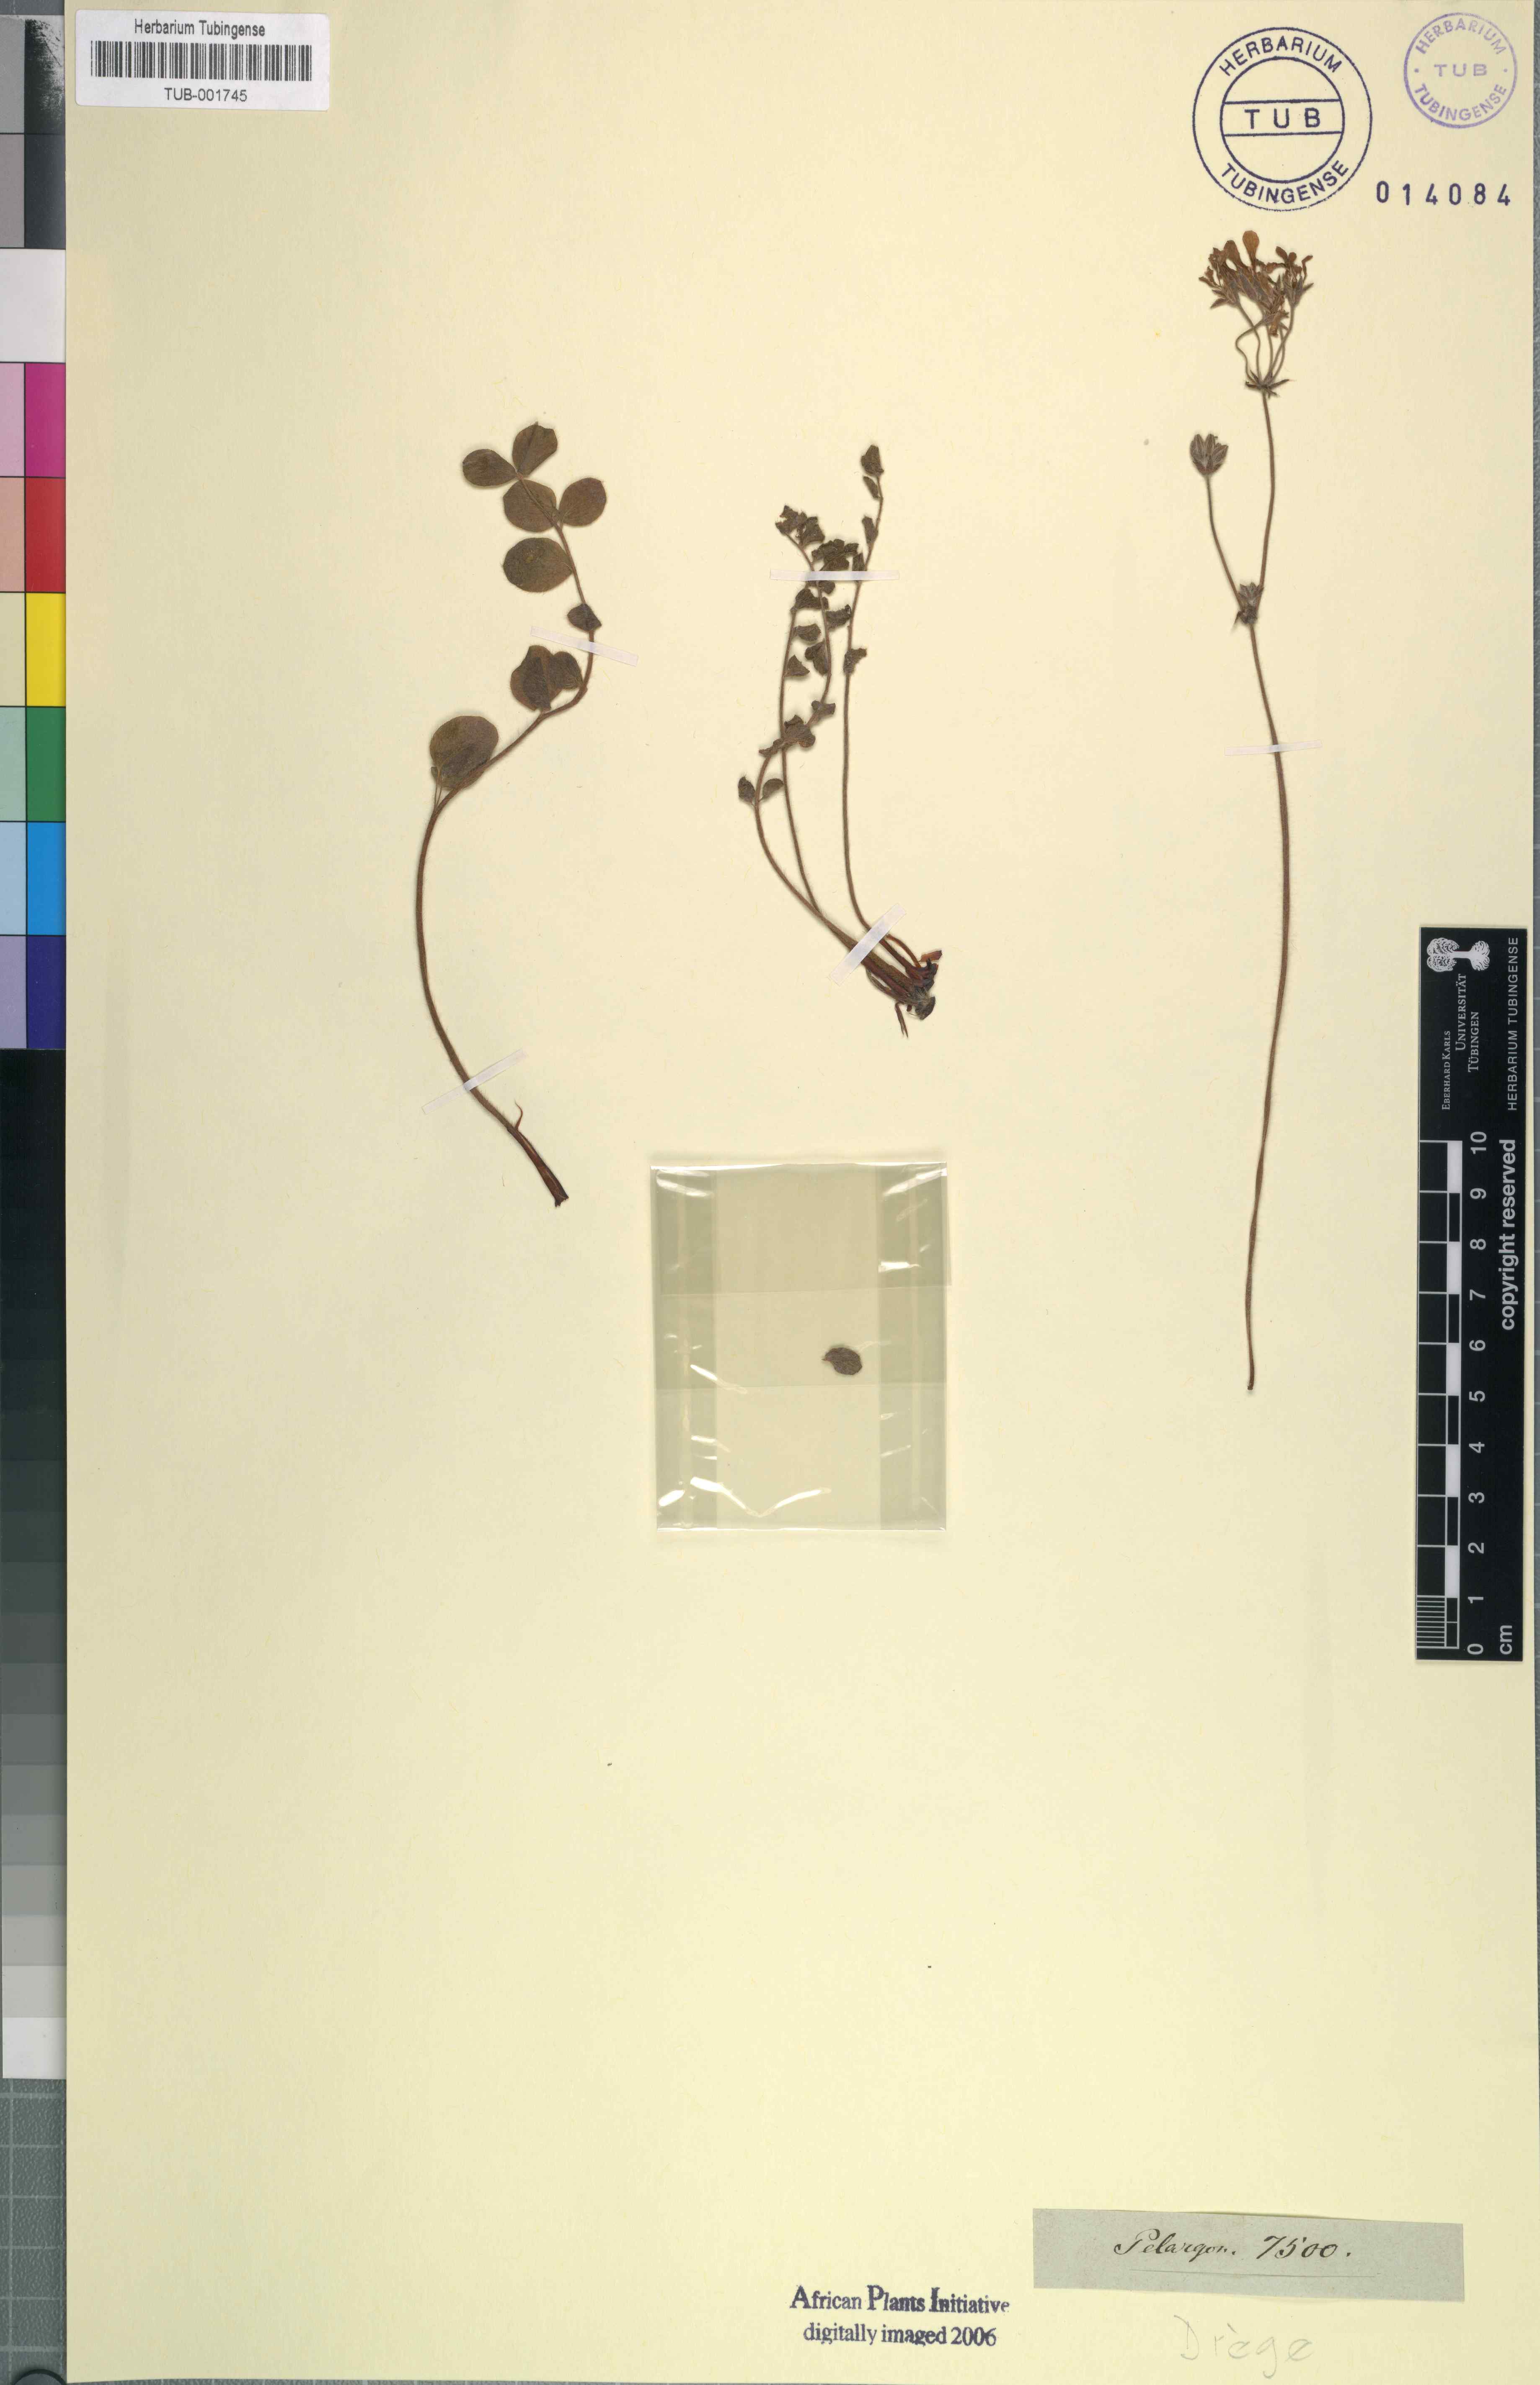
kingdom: Plantae
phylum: Tracheophyta
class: Magnoliopsida
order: Geraniales
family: Geraniaceae
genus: Pelargonium
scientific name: Pelargonium
